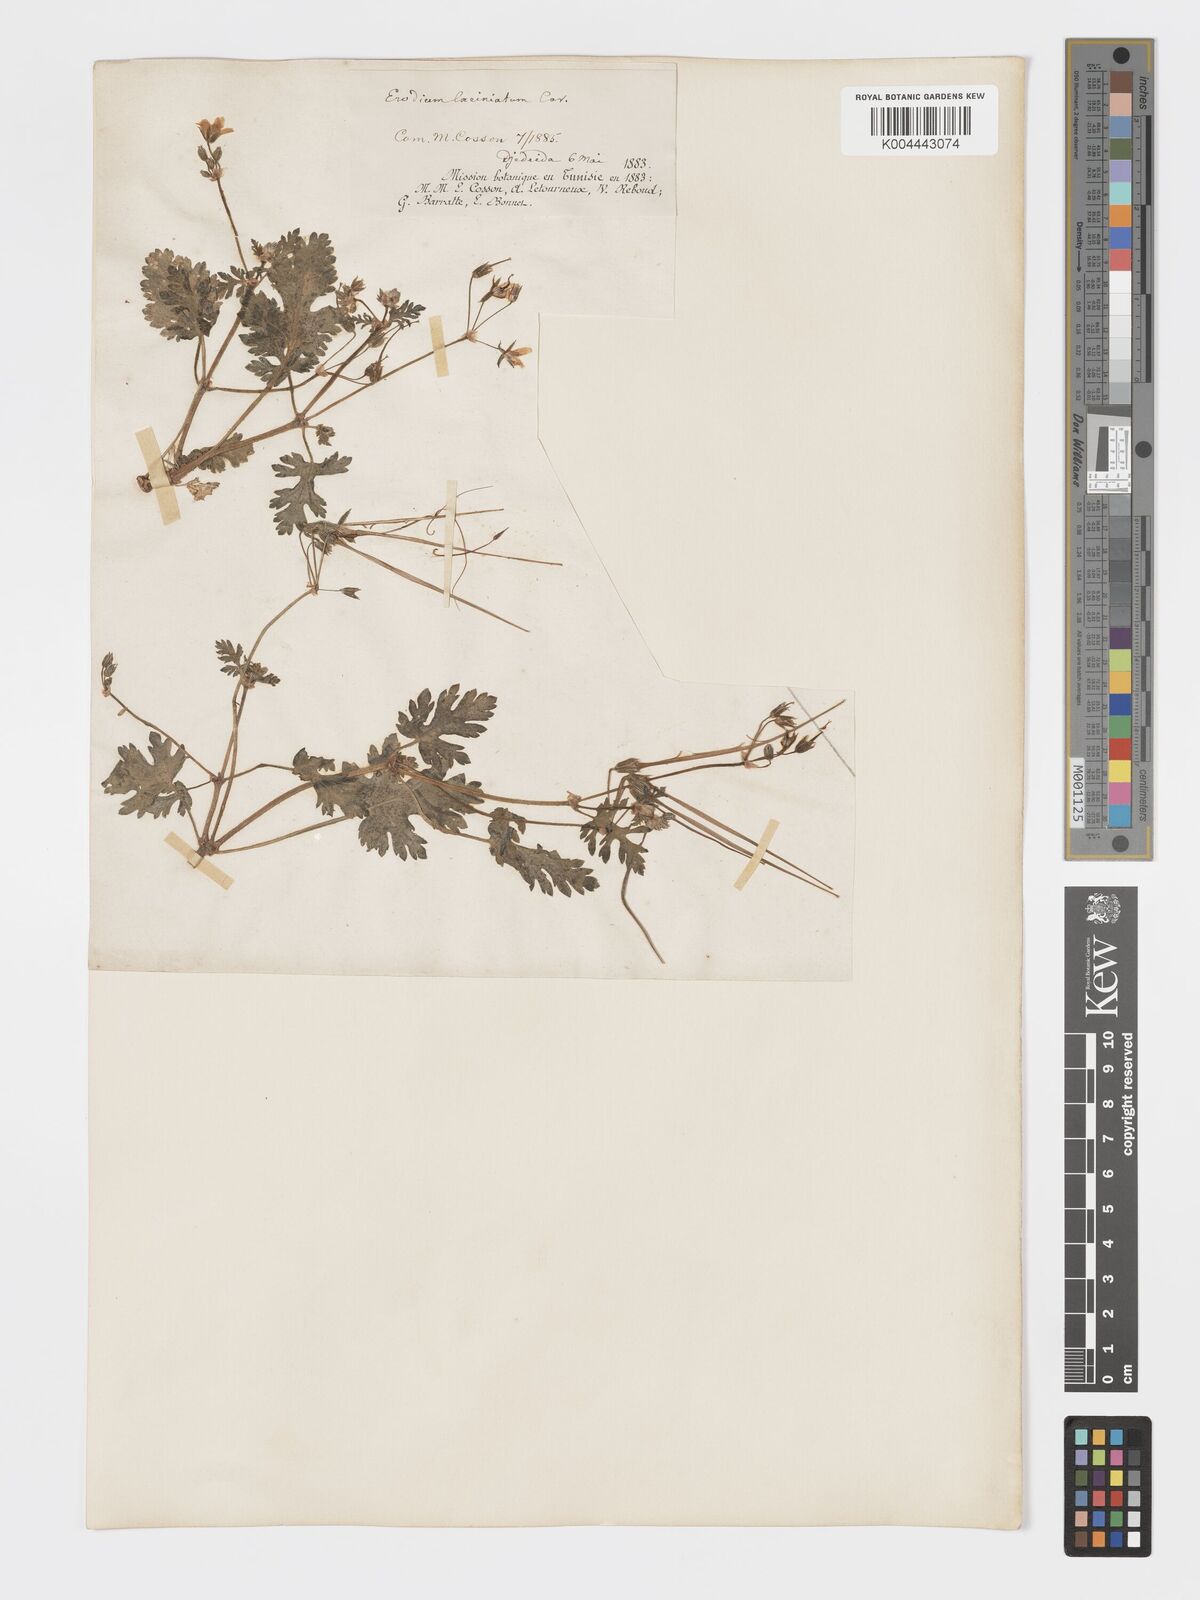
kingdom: Plantae
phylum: Tracheophyta
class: Magnoliopsida
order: Geraniales
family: Geraniaceae
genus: Erodium
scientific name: Erodium laciniatum
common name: Cutleaf stork's bill
